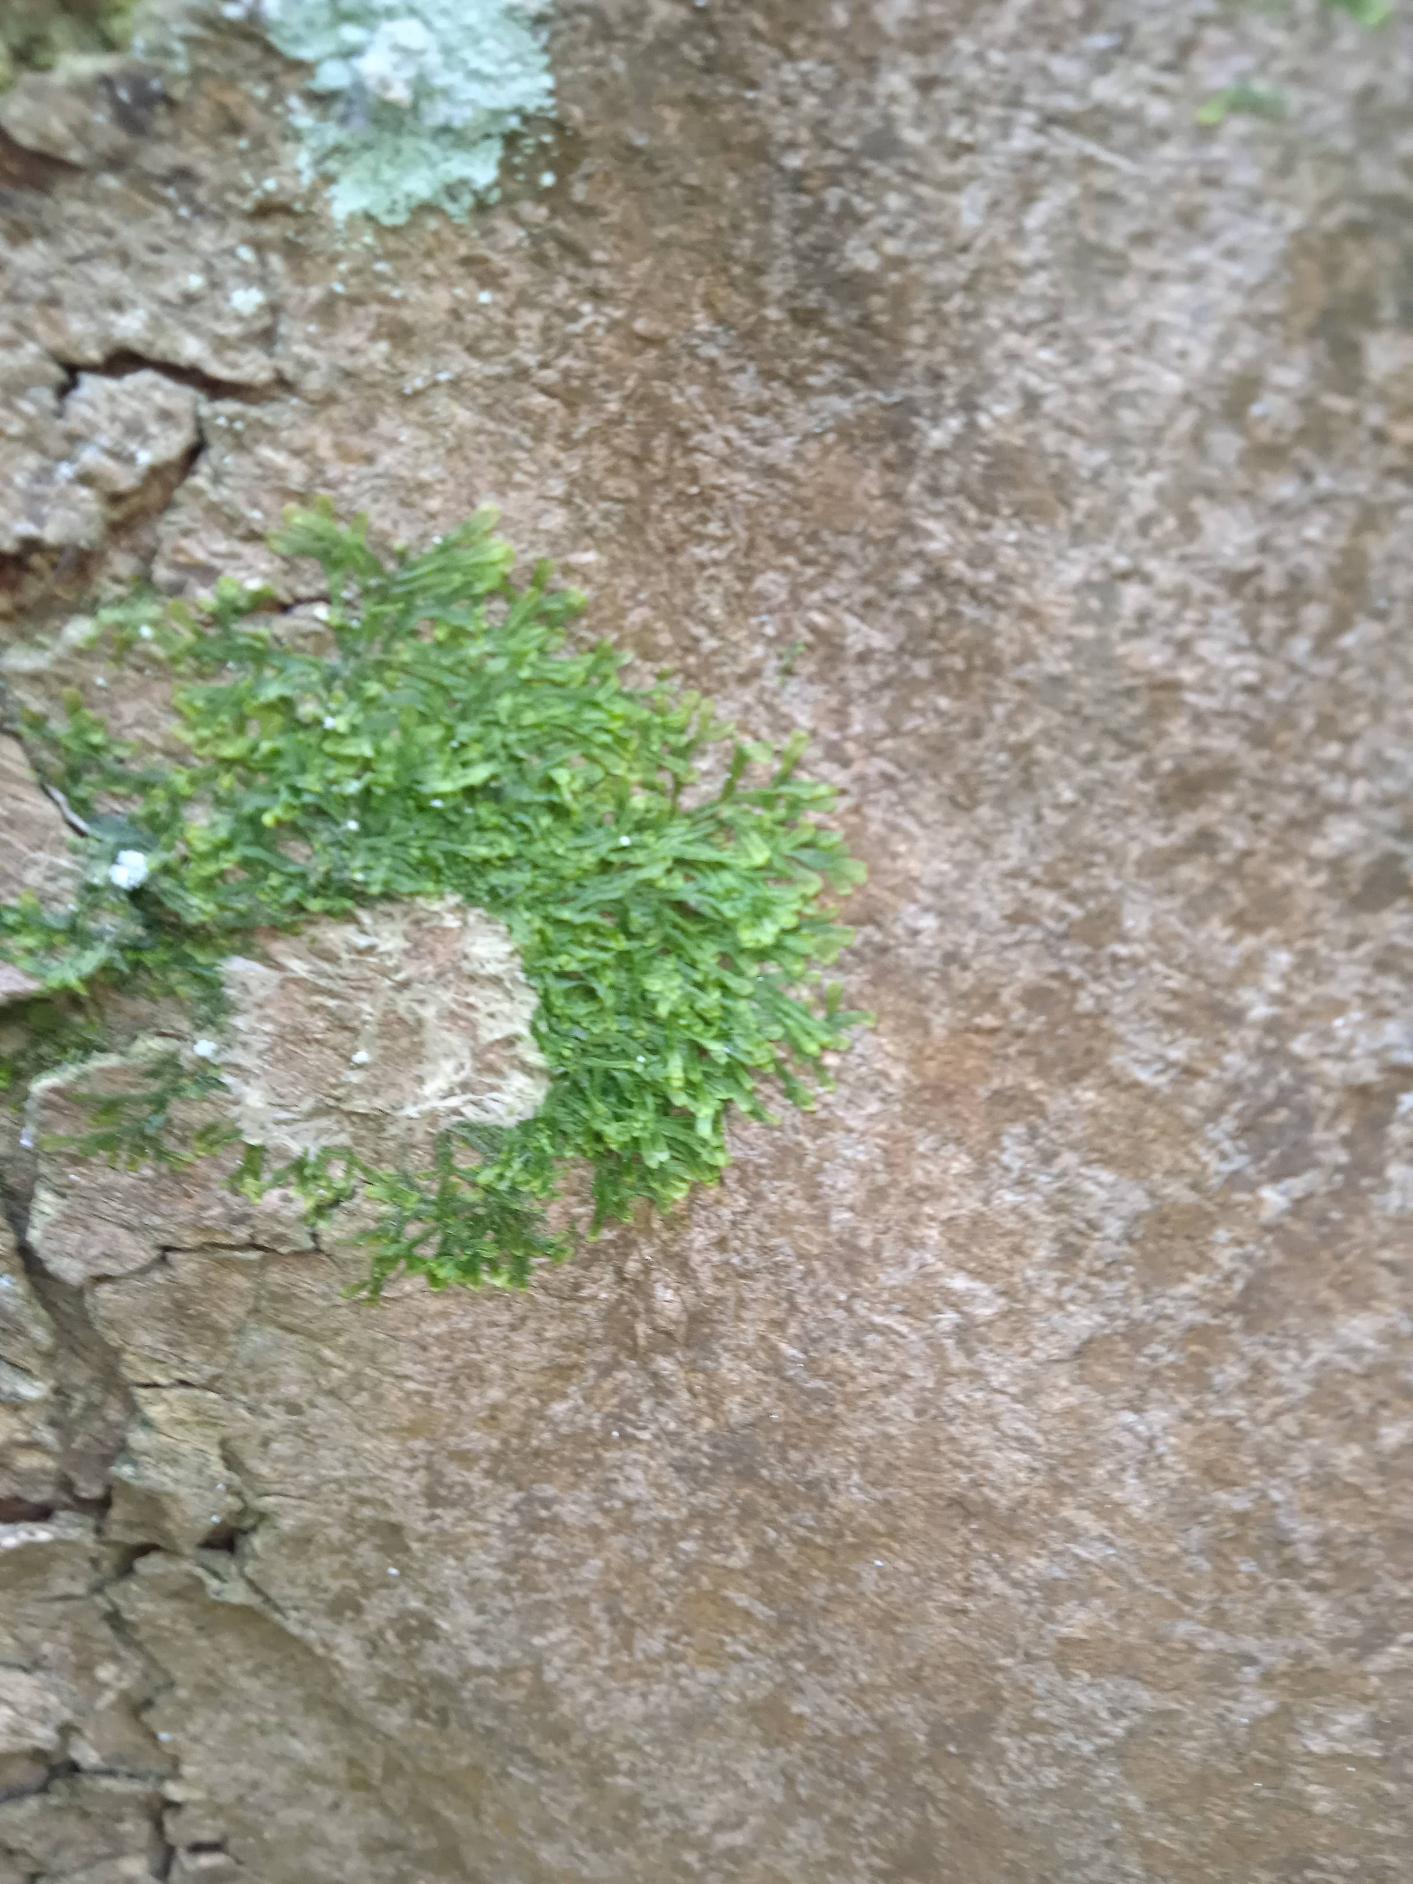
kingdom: Plantae
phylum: Marchantiophyta
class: Jungermanniopsida
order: Metzgeriales
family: Metzgeriaceae
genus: Metzgeria
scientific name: Metzgeria furcata
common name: Almindelig gaffelløv
